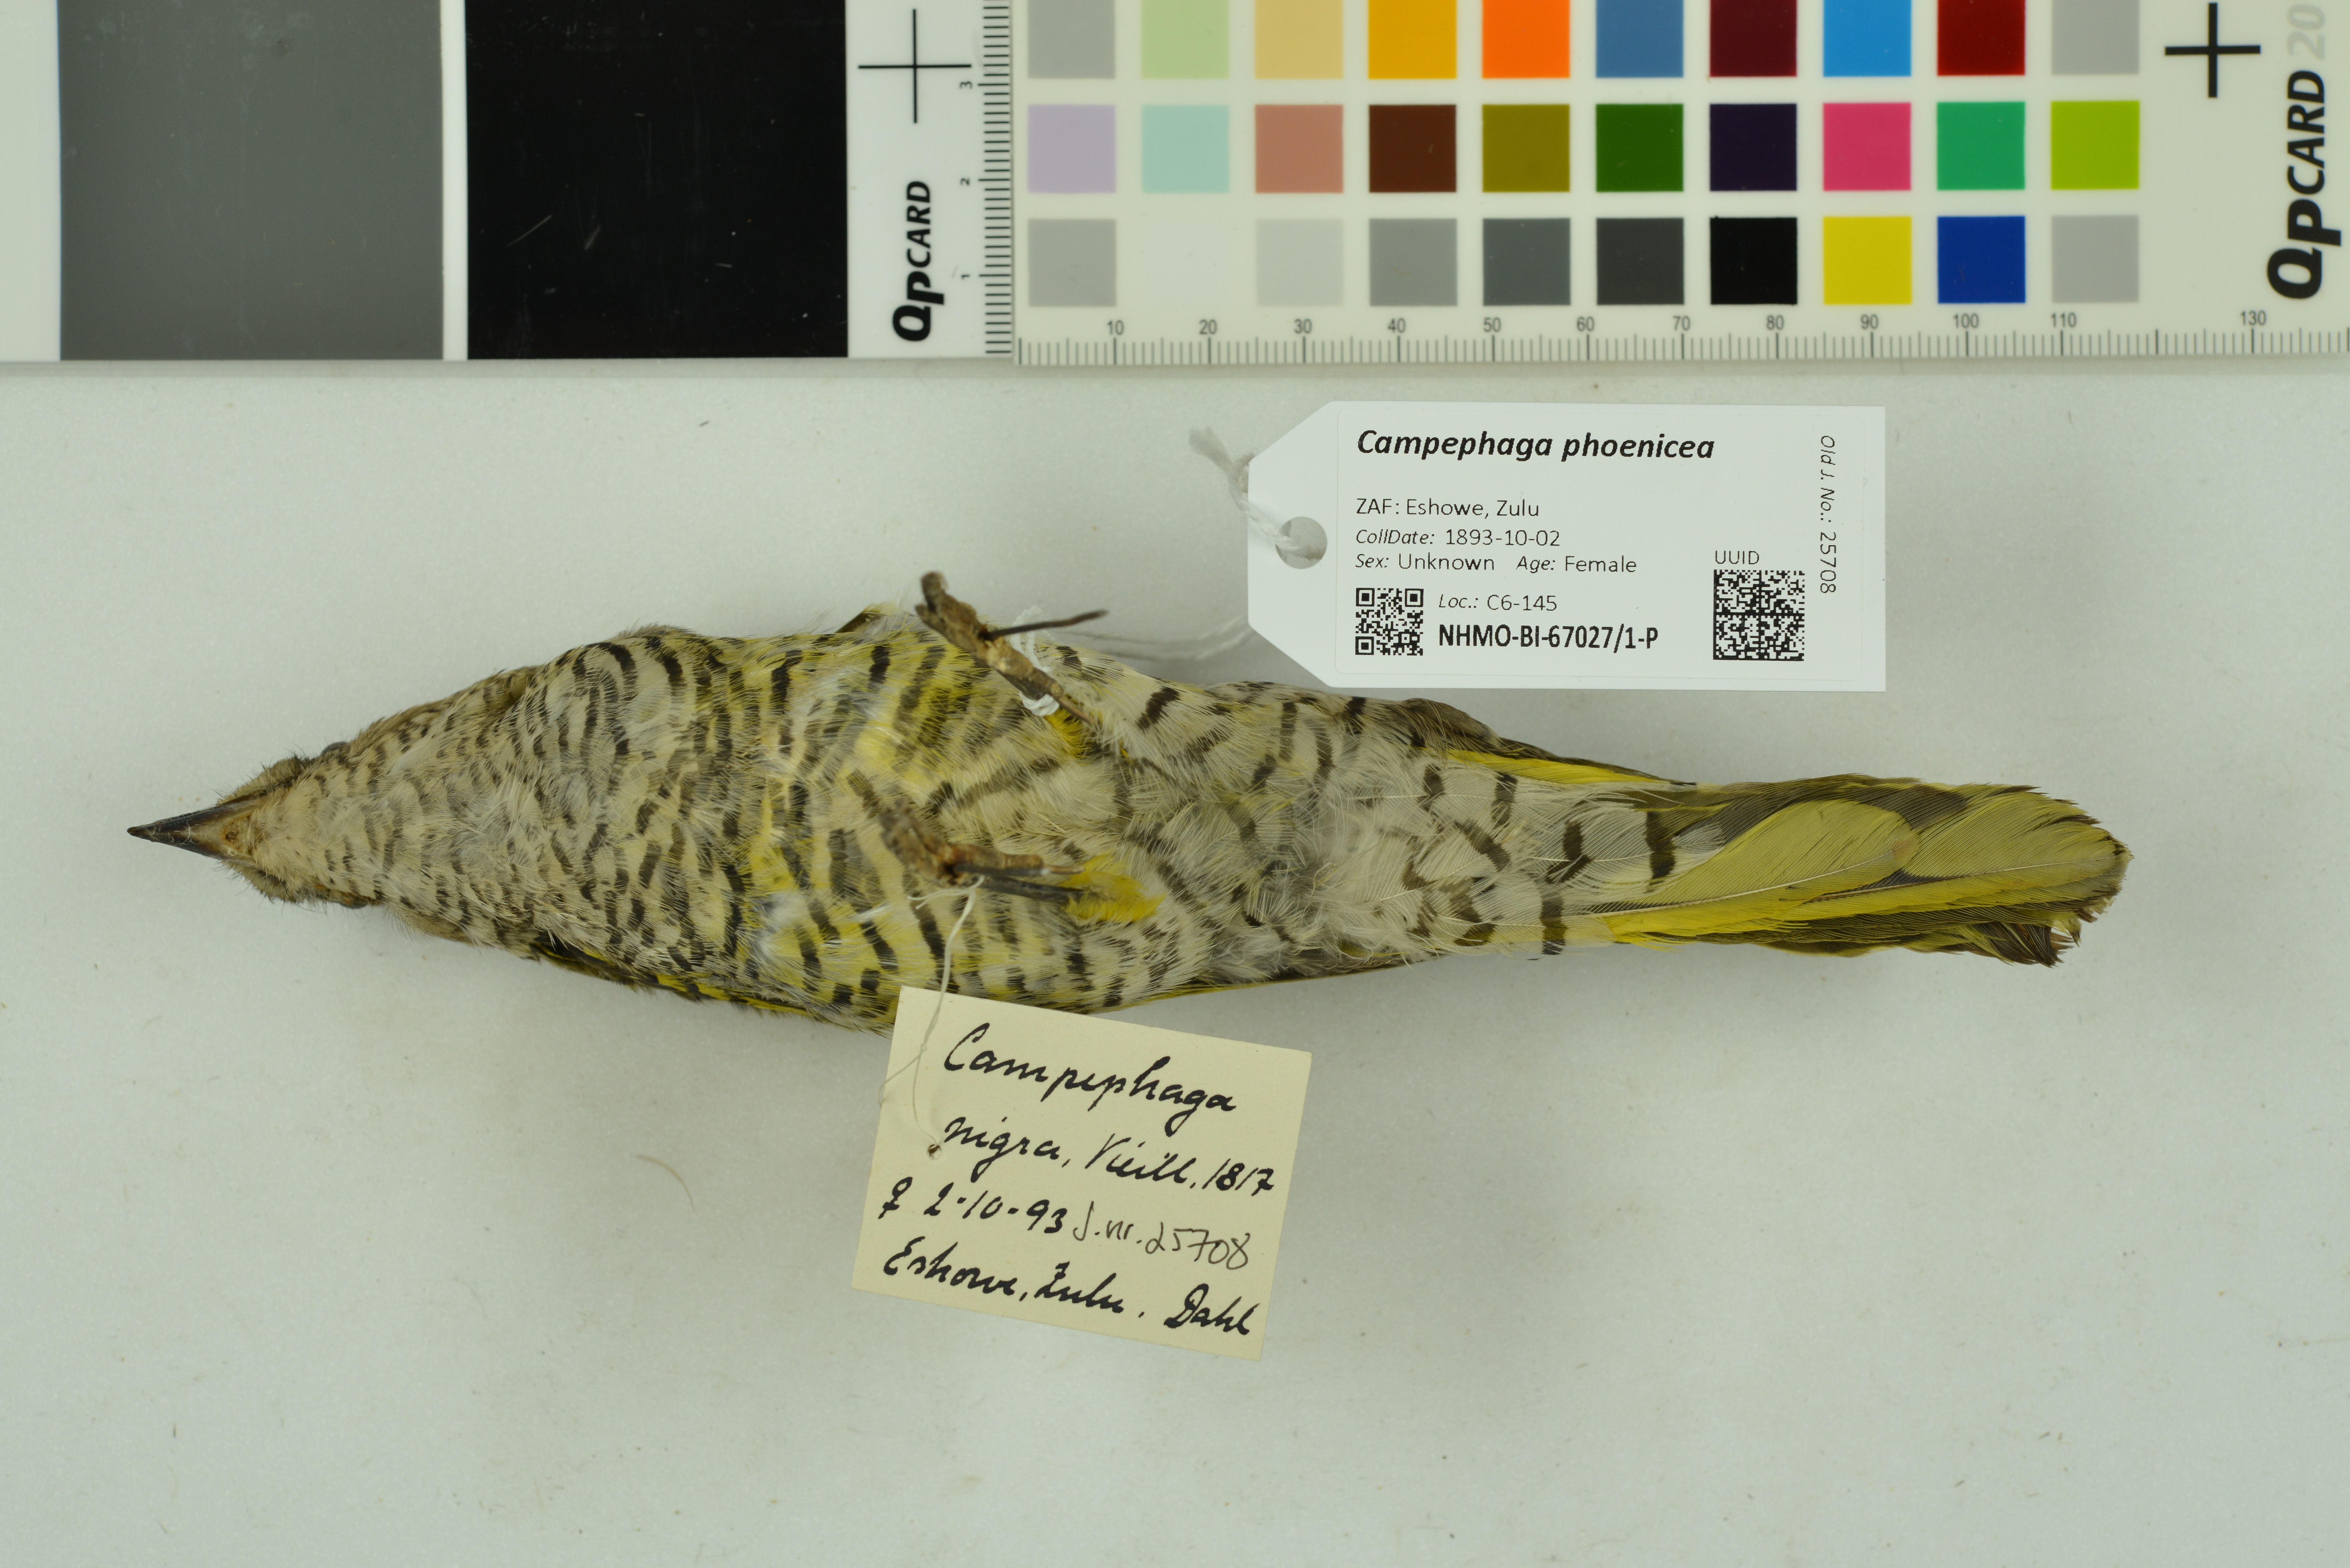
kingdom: Animalia
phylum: Chordata
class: Aves
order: Passeriformes
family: Campephagidae
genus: Campephaga
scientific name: Campephaga phoenicea
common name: Red-shouldered cuckooshrike
